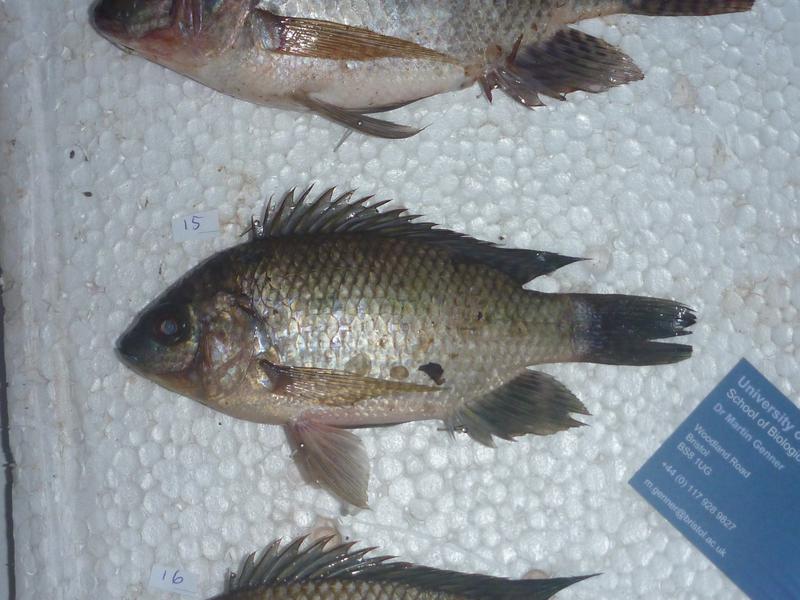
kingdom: Animalia
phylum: Chordata
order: Perciformes
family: Cichlidae
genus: Oreochromis
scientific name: Oreochromis upembae
